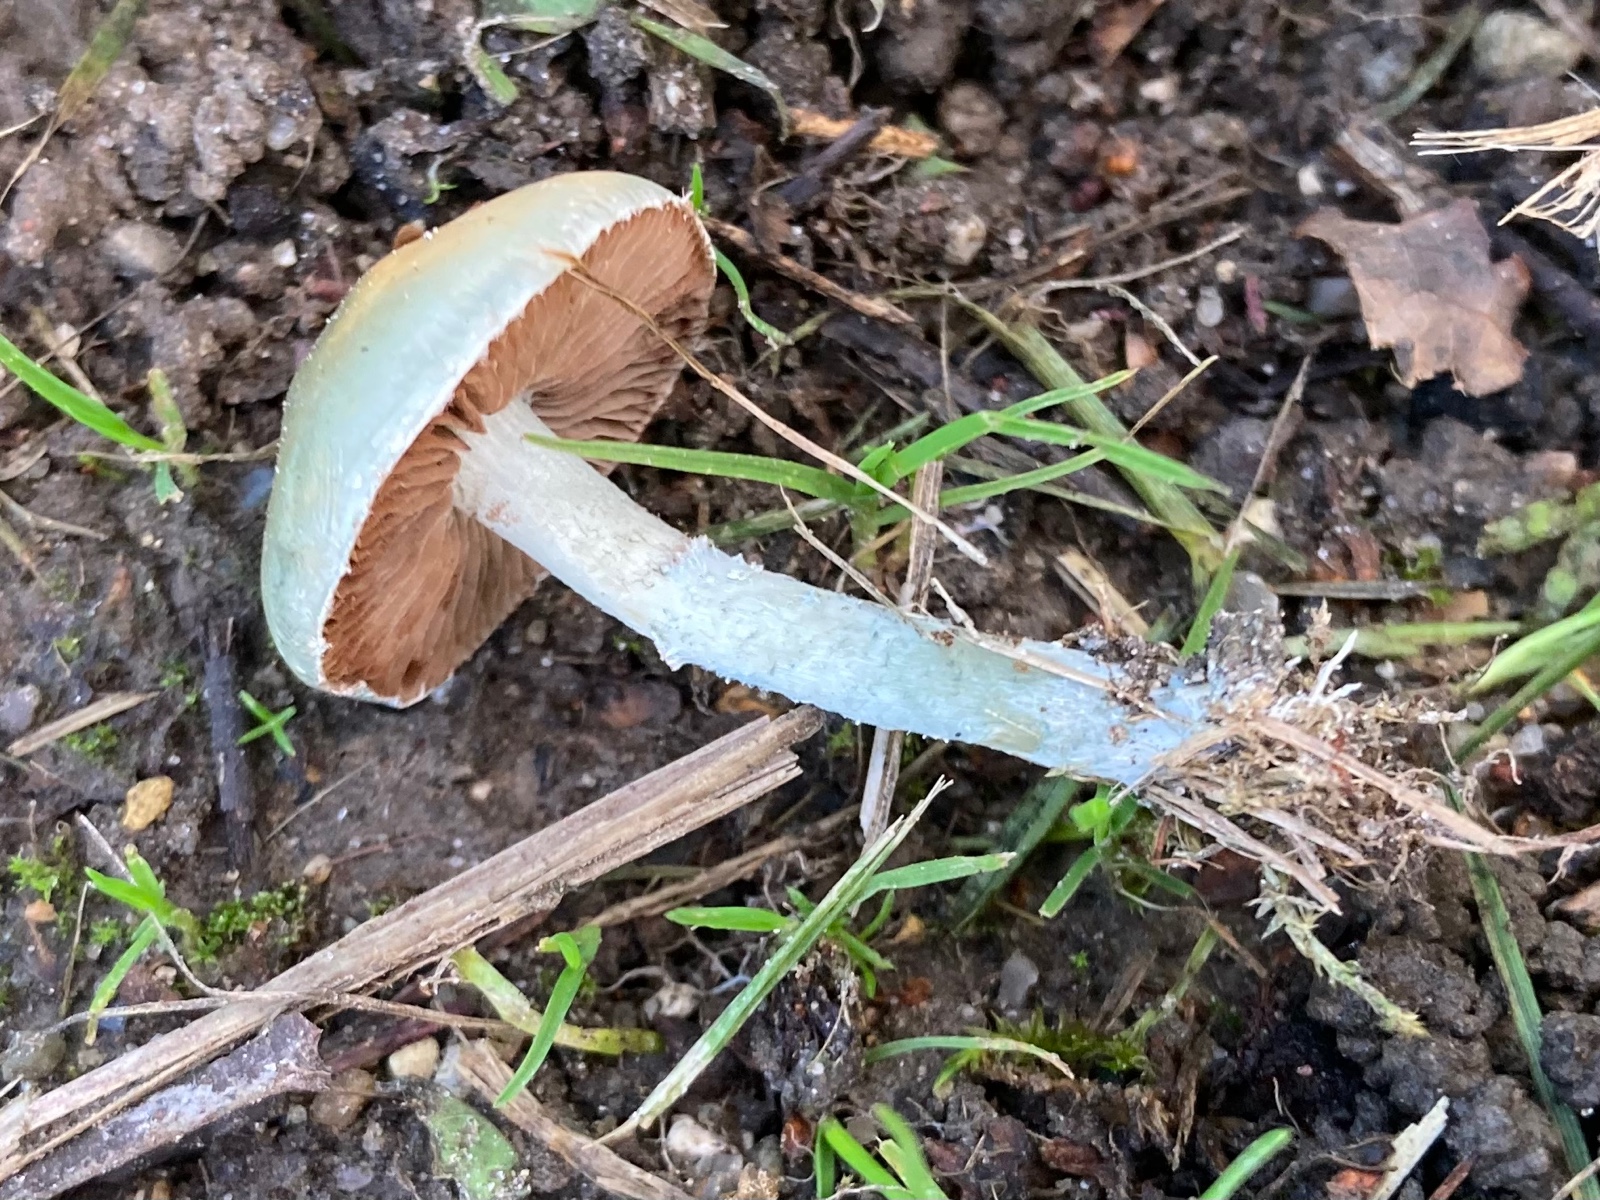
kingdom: Fungi
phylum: Basidiomycota
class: Agaricomycetes
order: Agaricales
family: Strophariaceae
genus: Stropharia
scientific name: Stropharia cyanea
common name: blågrøn bredblad
